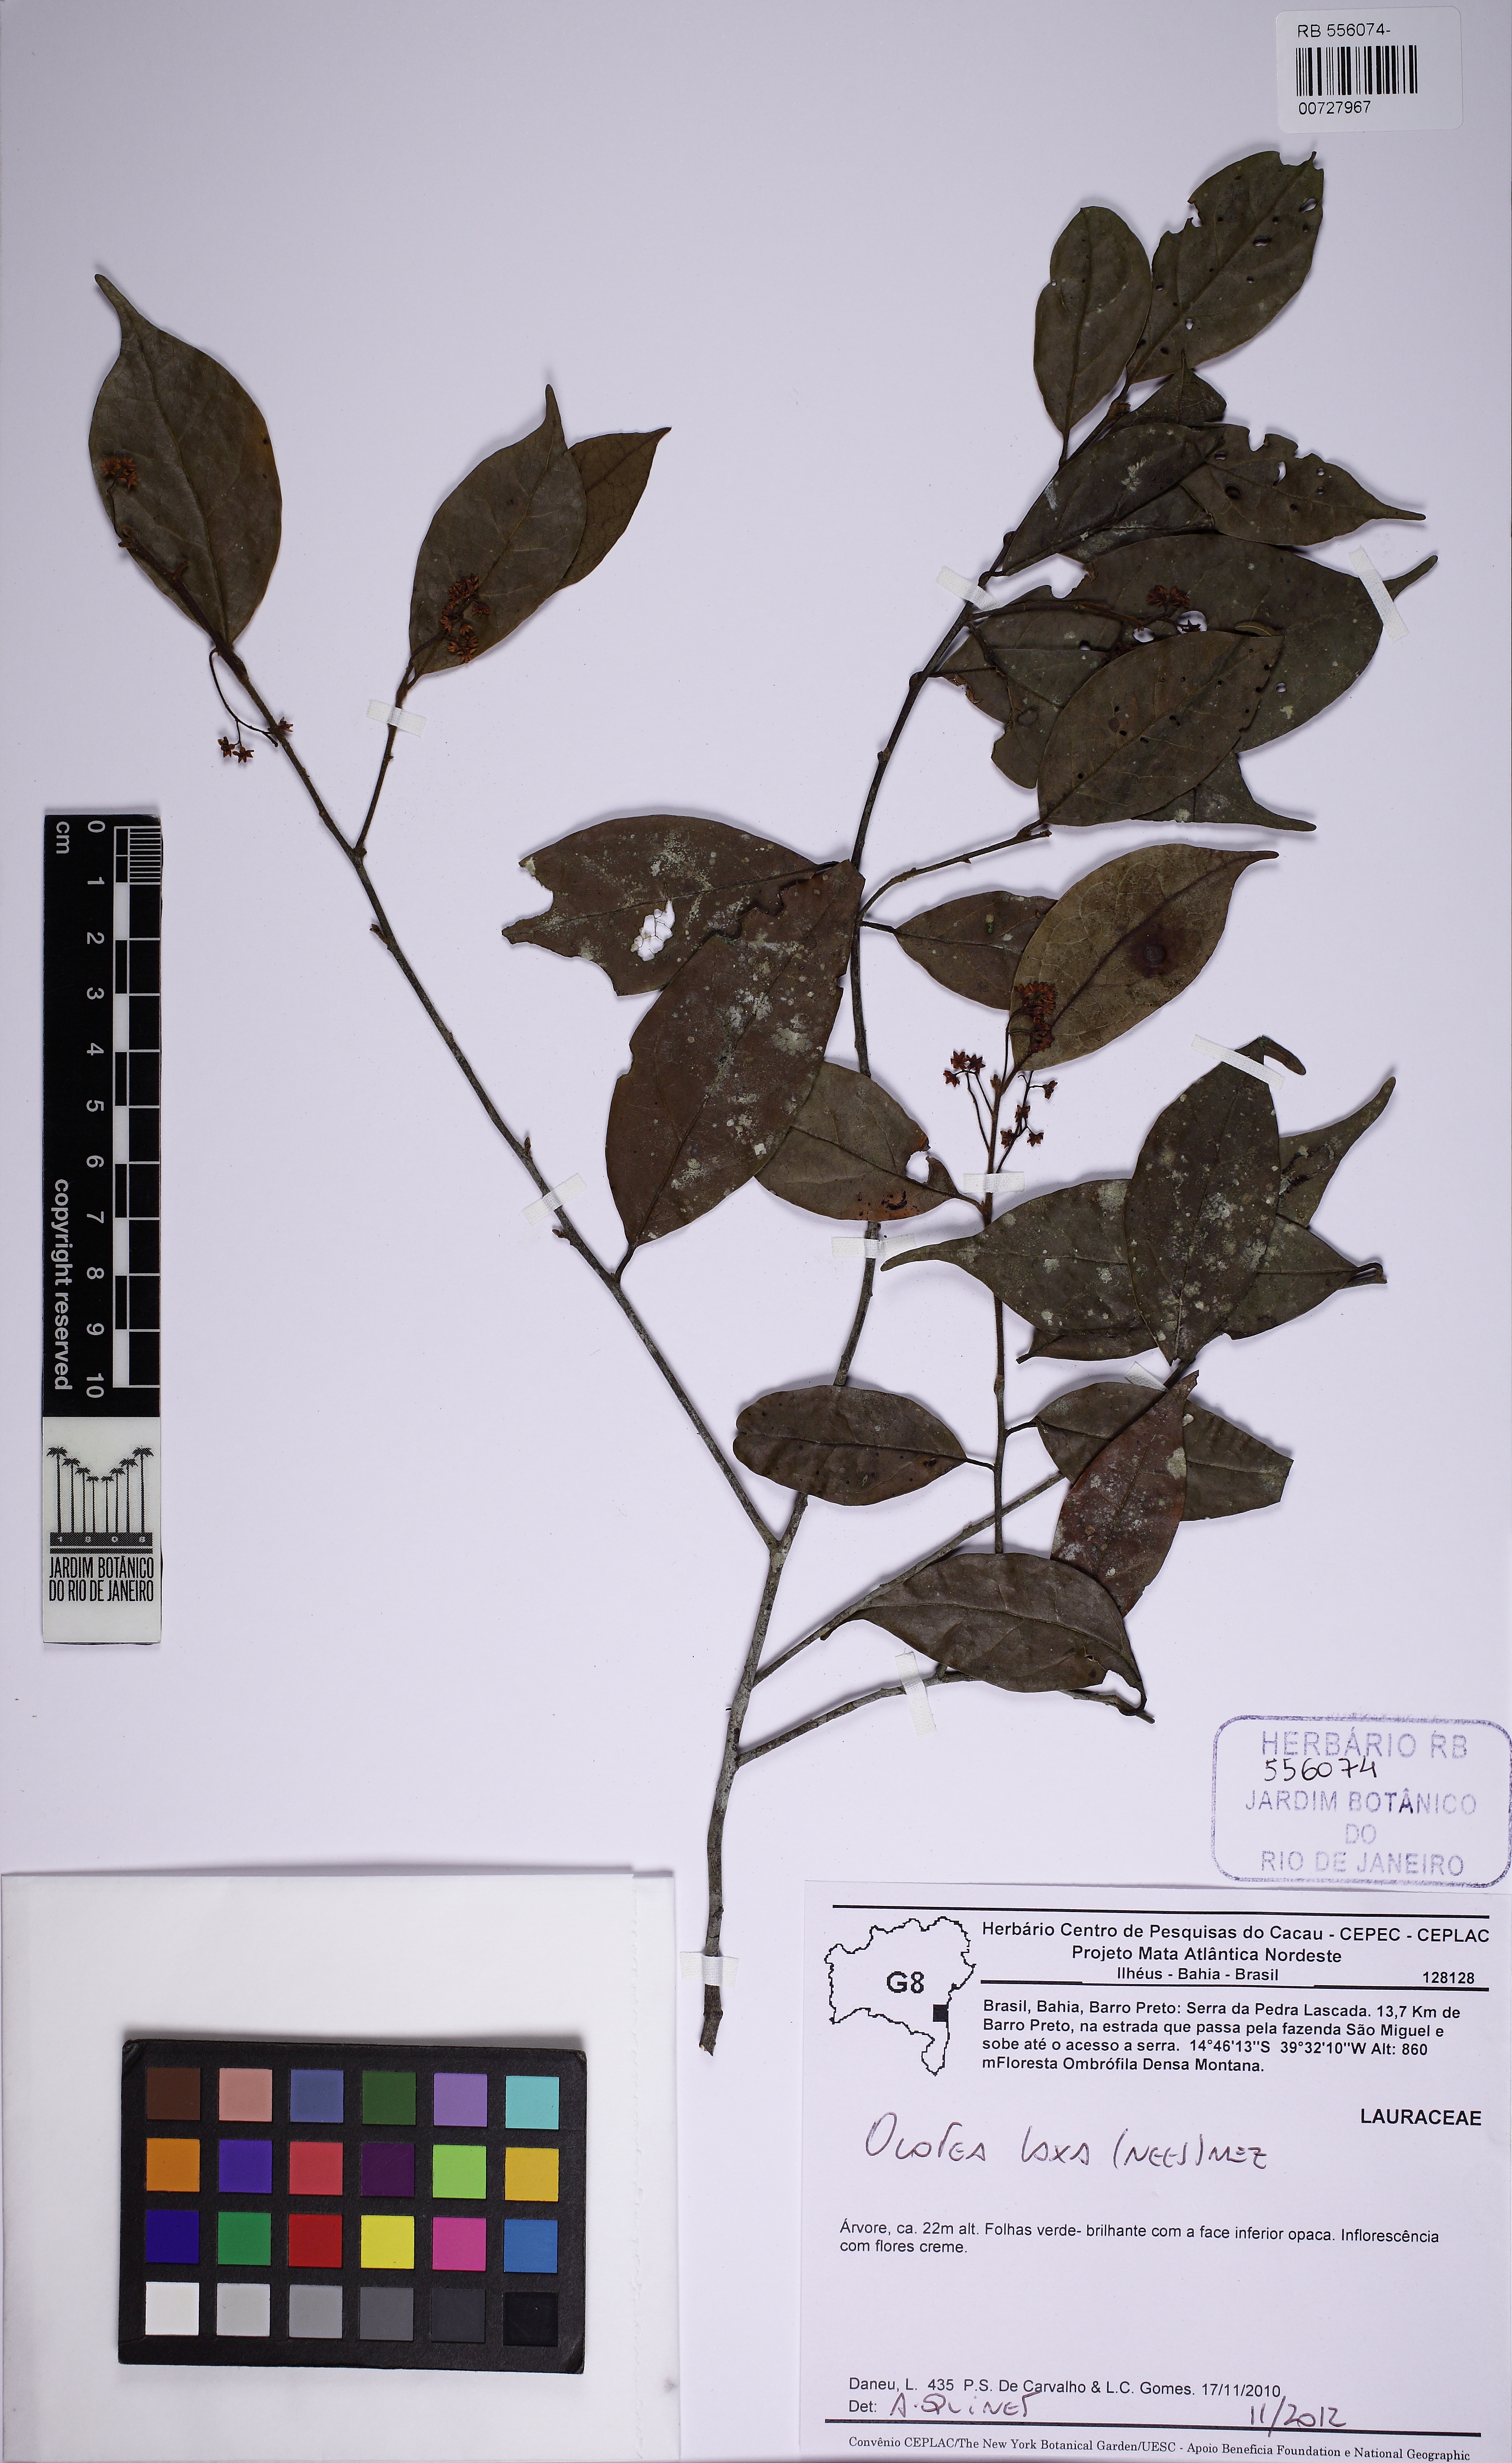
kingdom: Plantae
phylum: Tracheophyta
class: Magnoliopsida
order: Laurales
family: Lauraceae
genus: Ocotea
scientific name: Ocotea laxa
